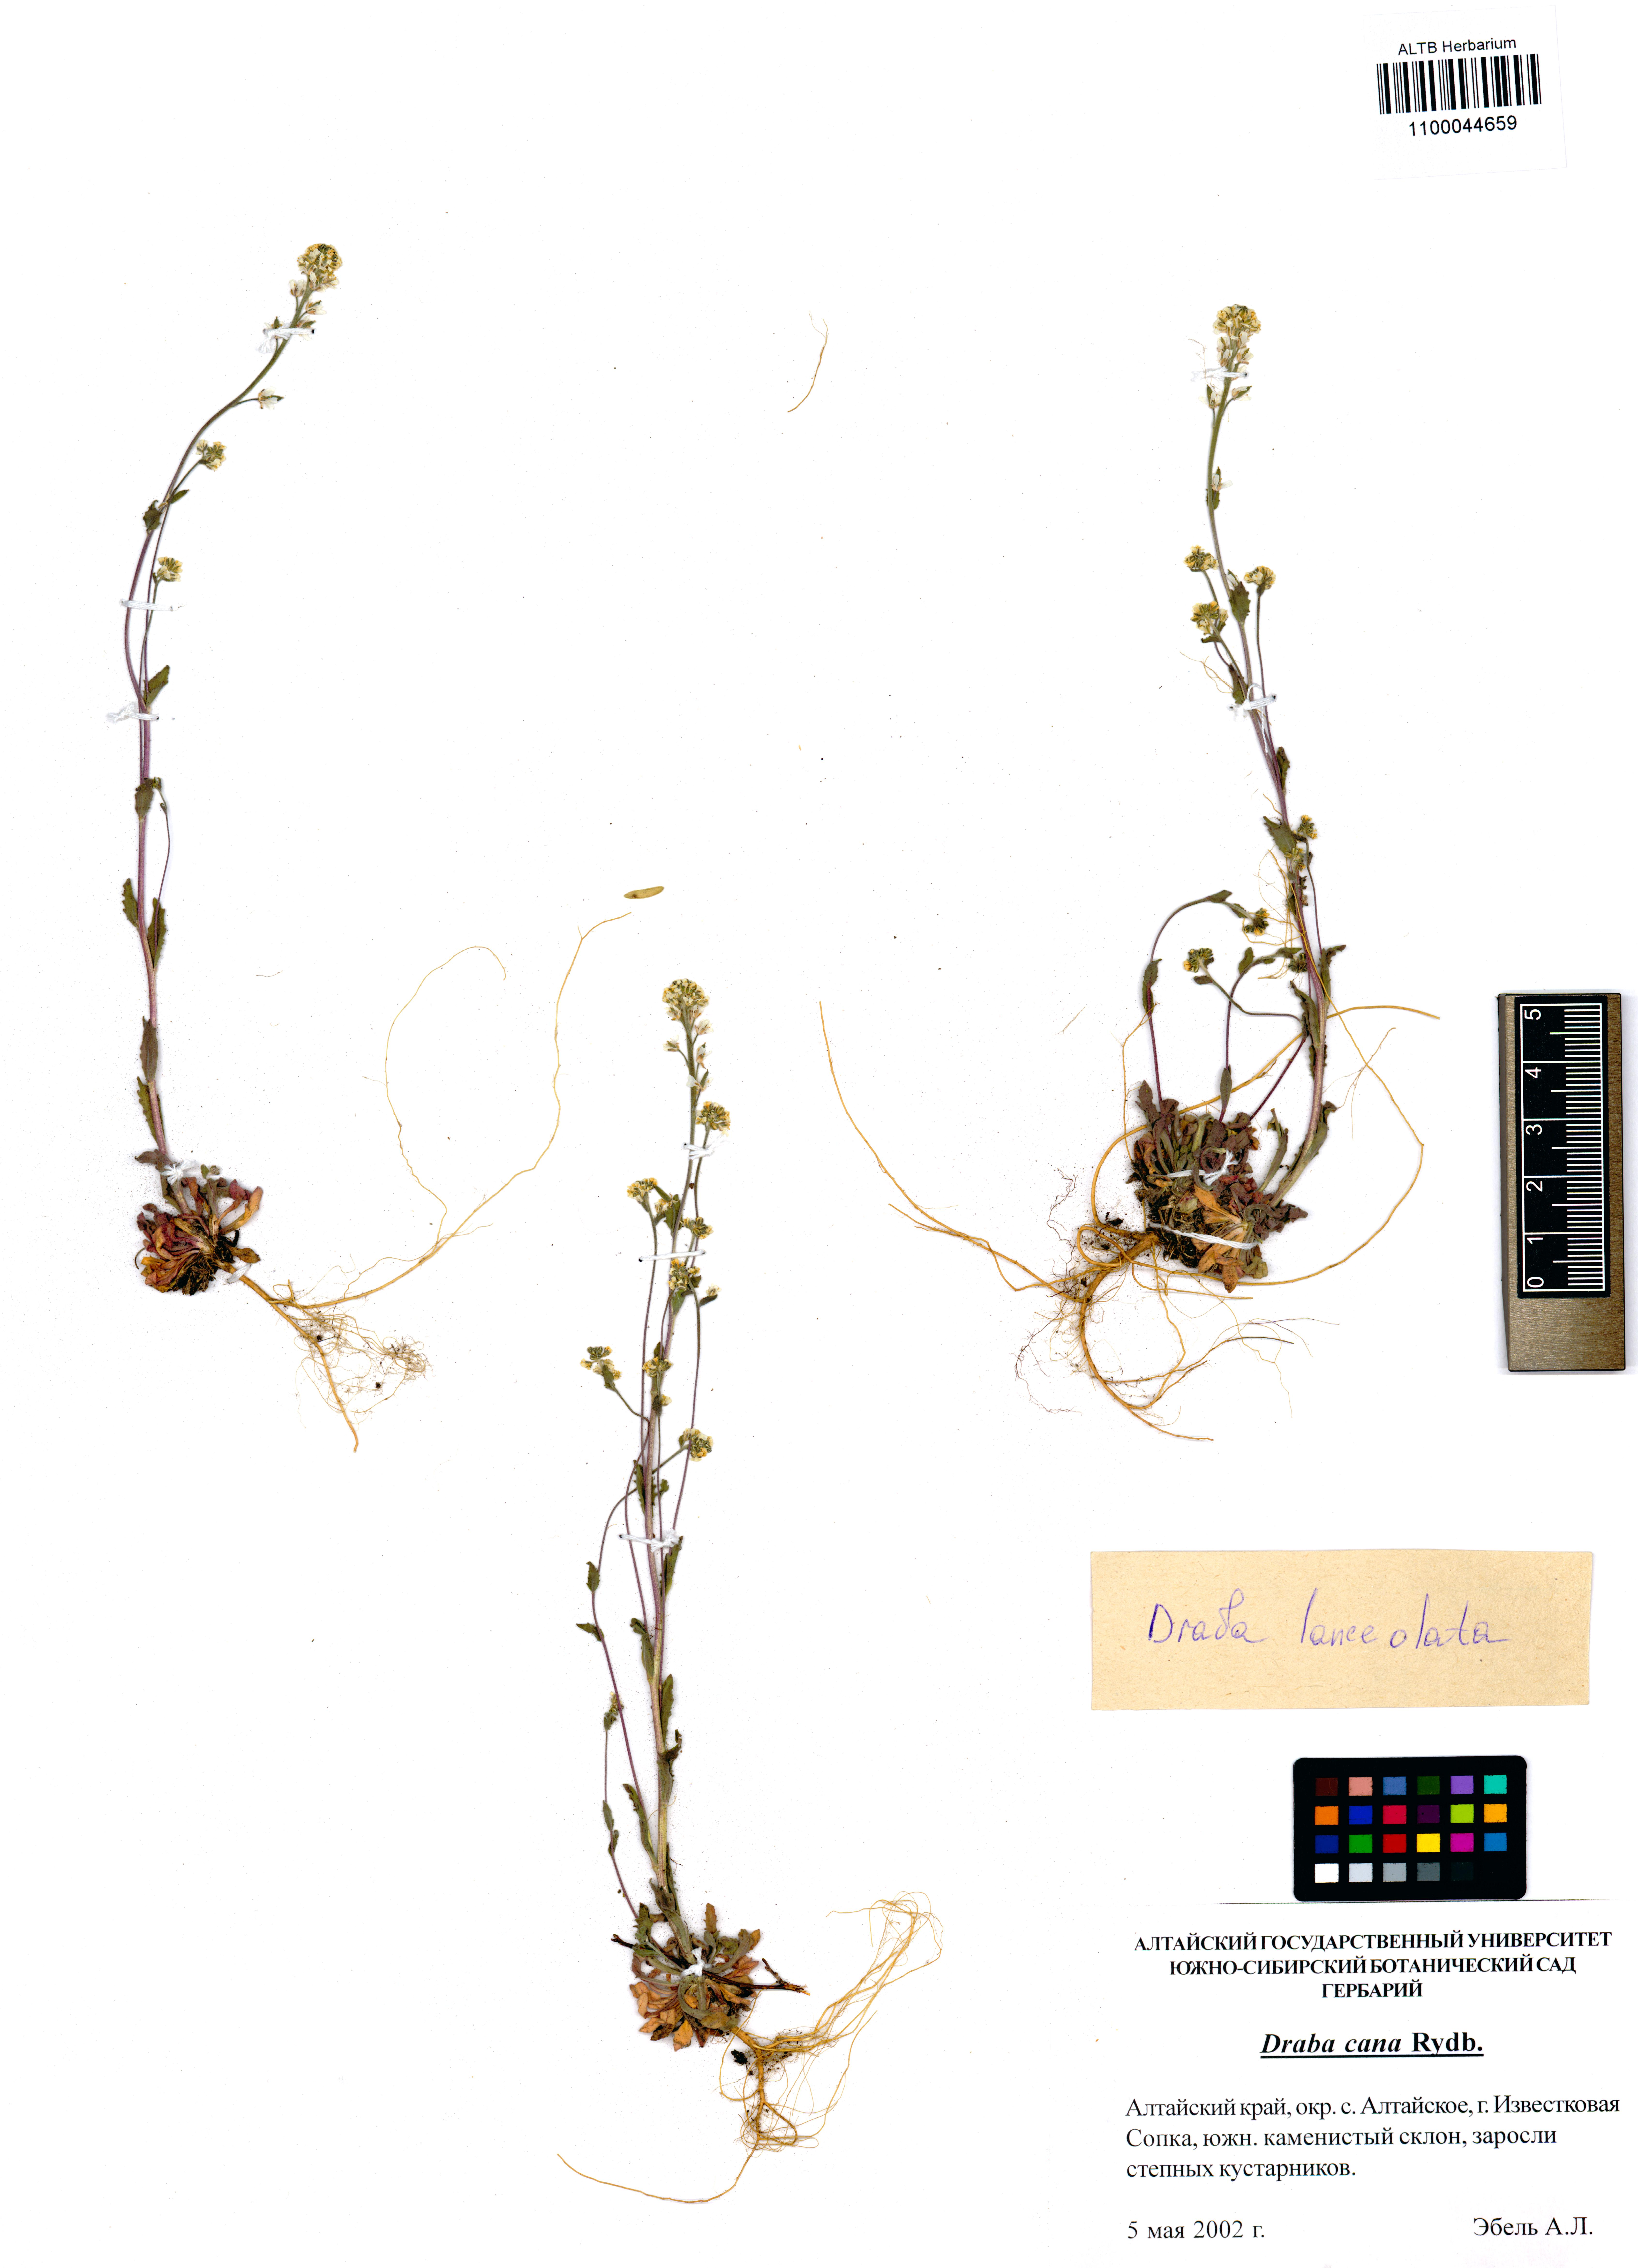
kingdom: Plantae
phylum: Tracheophyta
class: Magnoliopsida
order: Brassicales
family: Brassicaceae
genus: Draba
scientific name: Draba lanceolata
